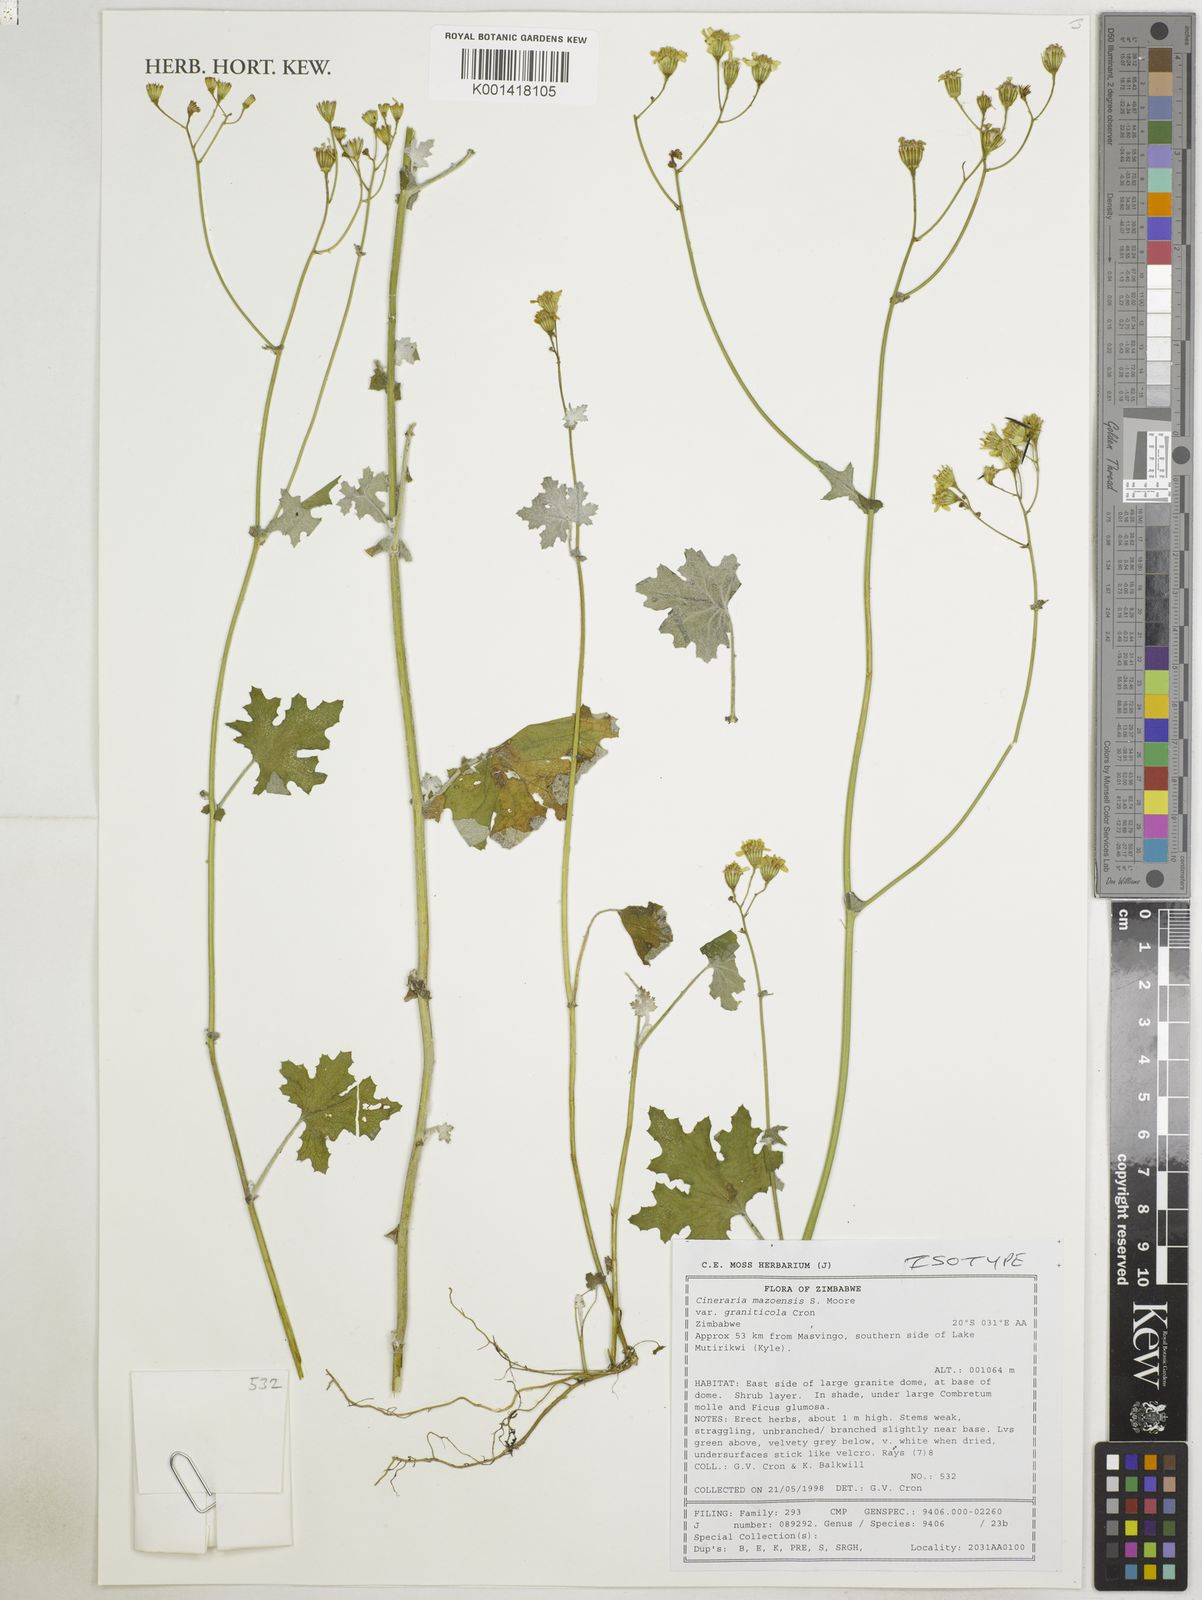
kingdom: Plantae
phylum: Tracheophyta
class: Magnoliopsida
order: Asterales
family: Asteraceae
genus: Cineraria
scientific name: Cineraria mazoensis
